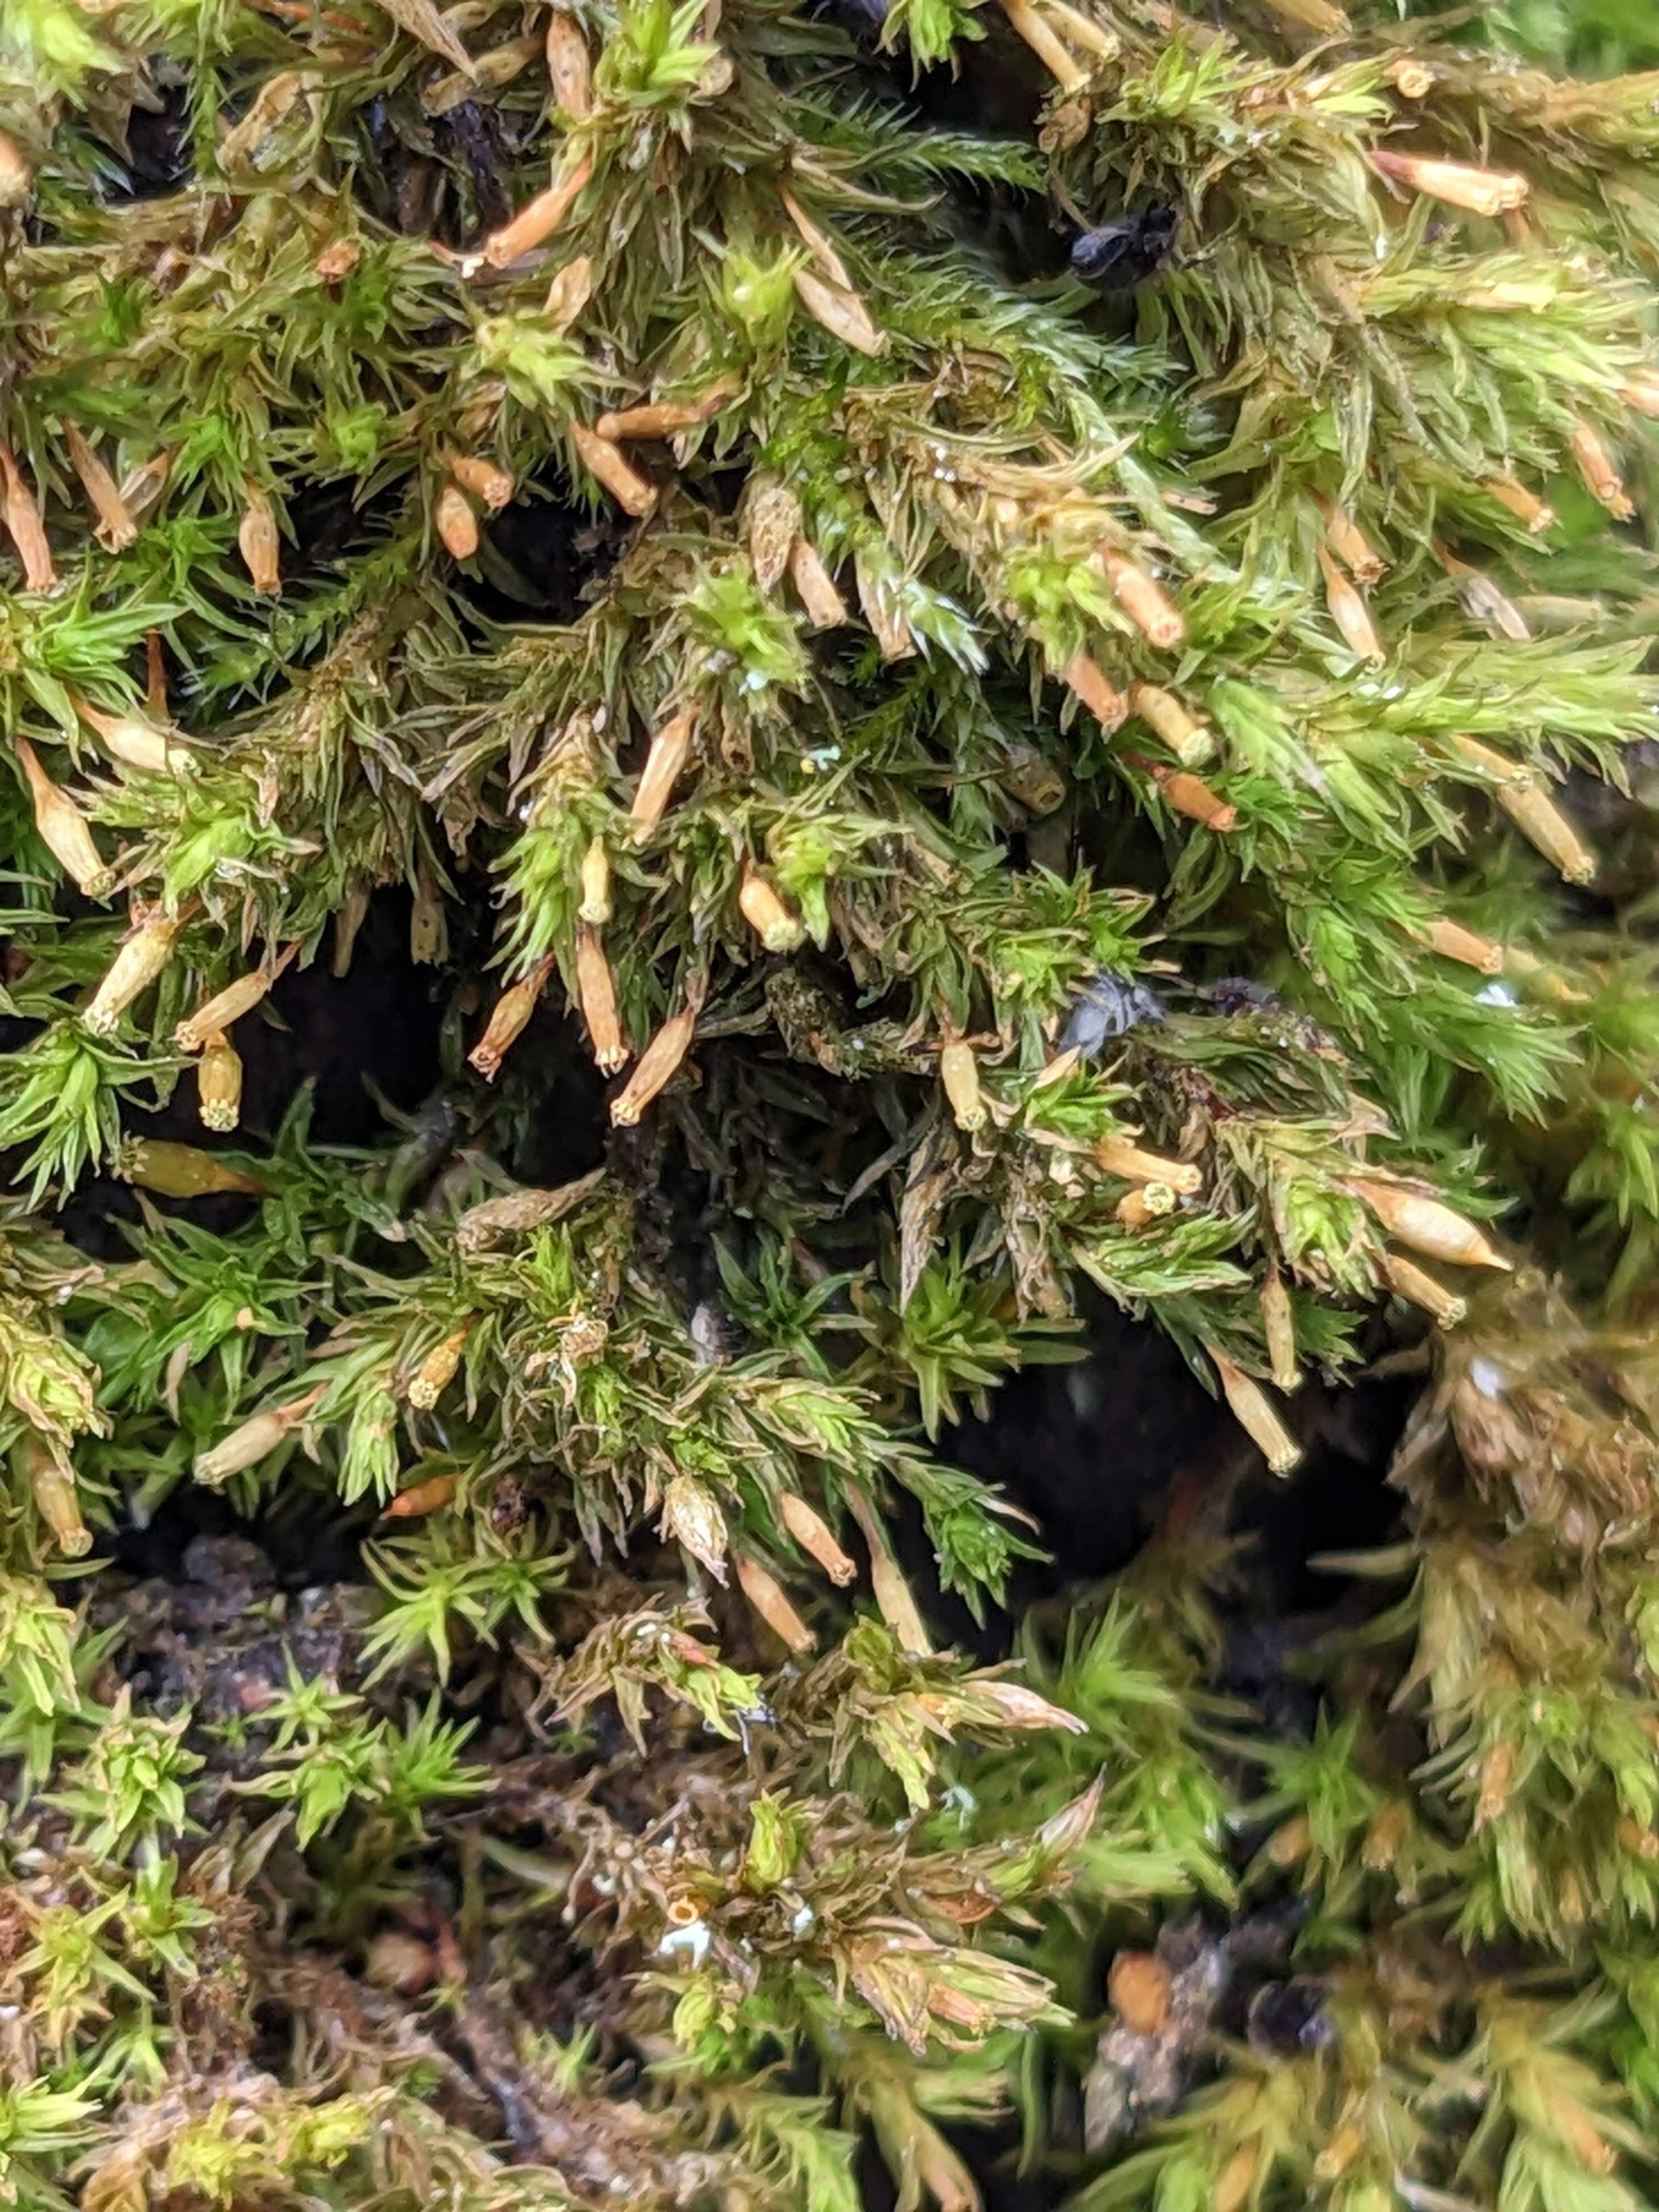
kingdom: Plantae
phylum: Bryophyta
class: Bryopsida
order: Orthotrichales
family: Orthotrichaceae
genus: Lewinskya
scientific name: Lewinskya speciosa
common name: Kortstribet furehætte
